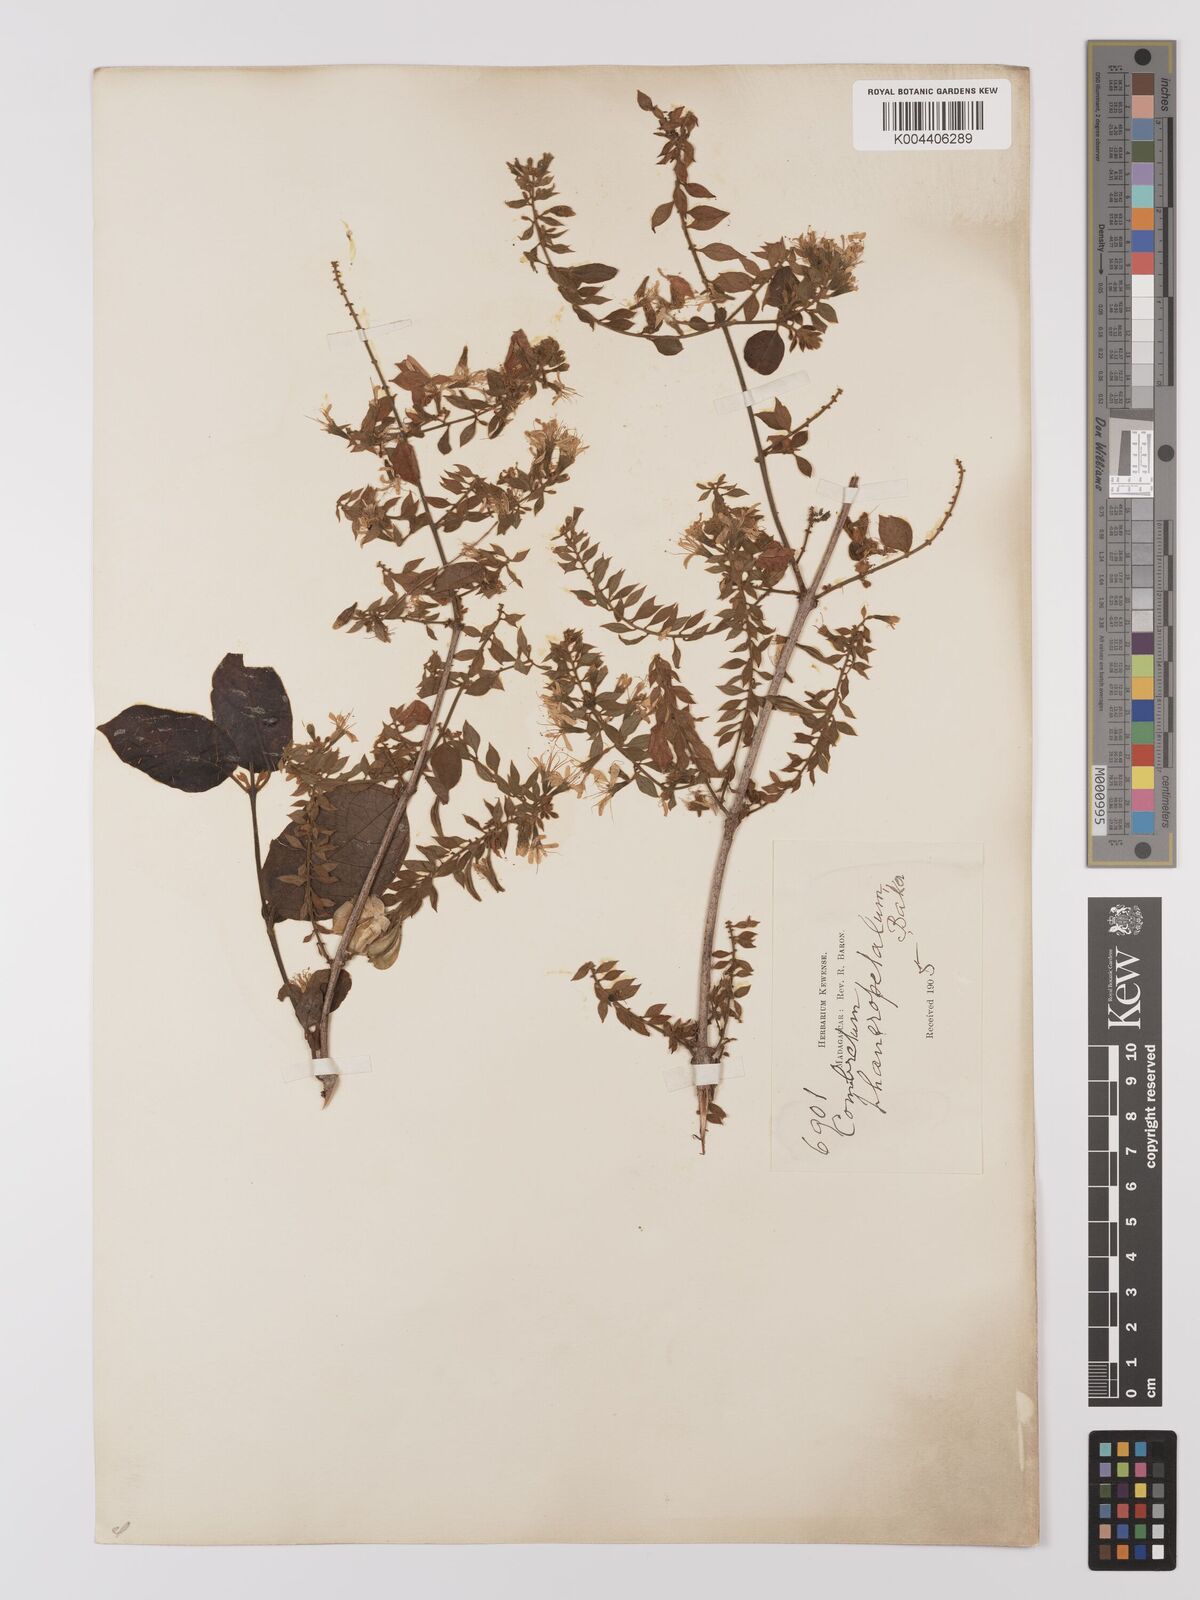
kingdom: Plantae
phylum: Tracheophyta
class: Magnoliopsida
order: Myrtales
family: Combretaceae
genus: Combretum
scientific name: Combretum albiflorum
